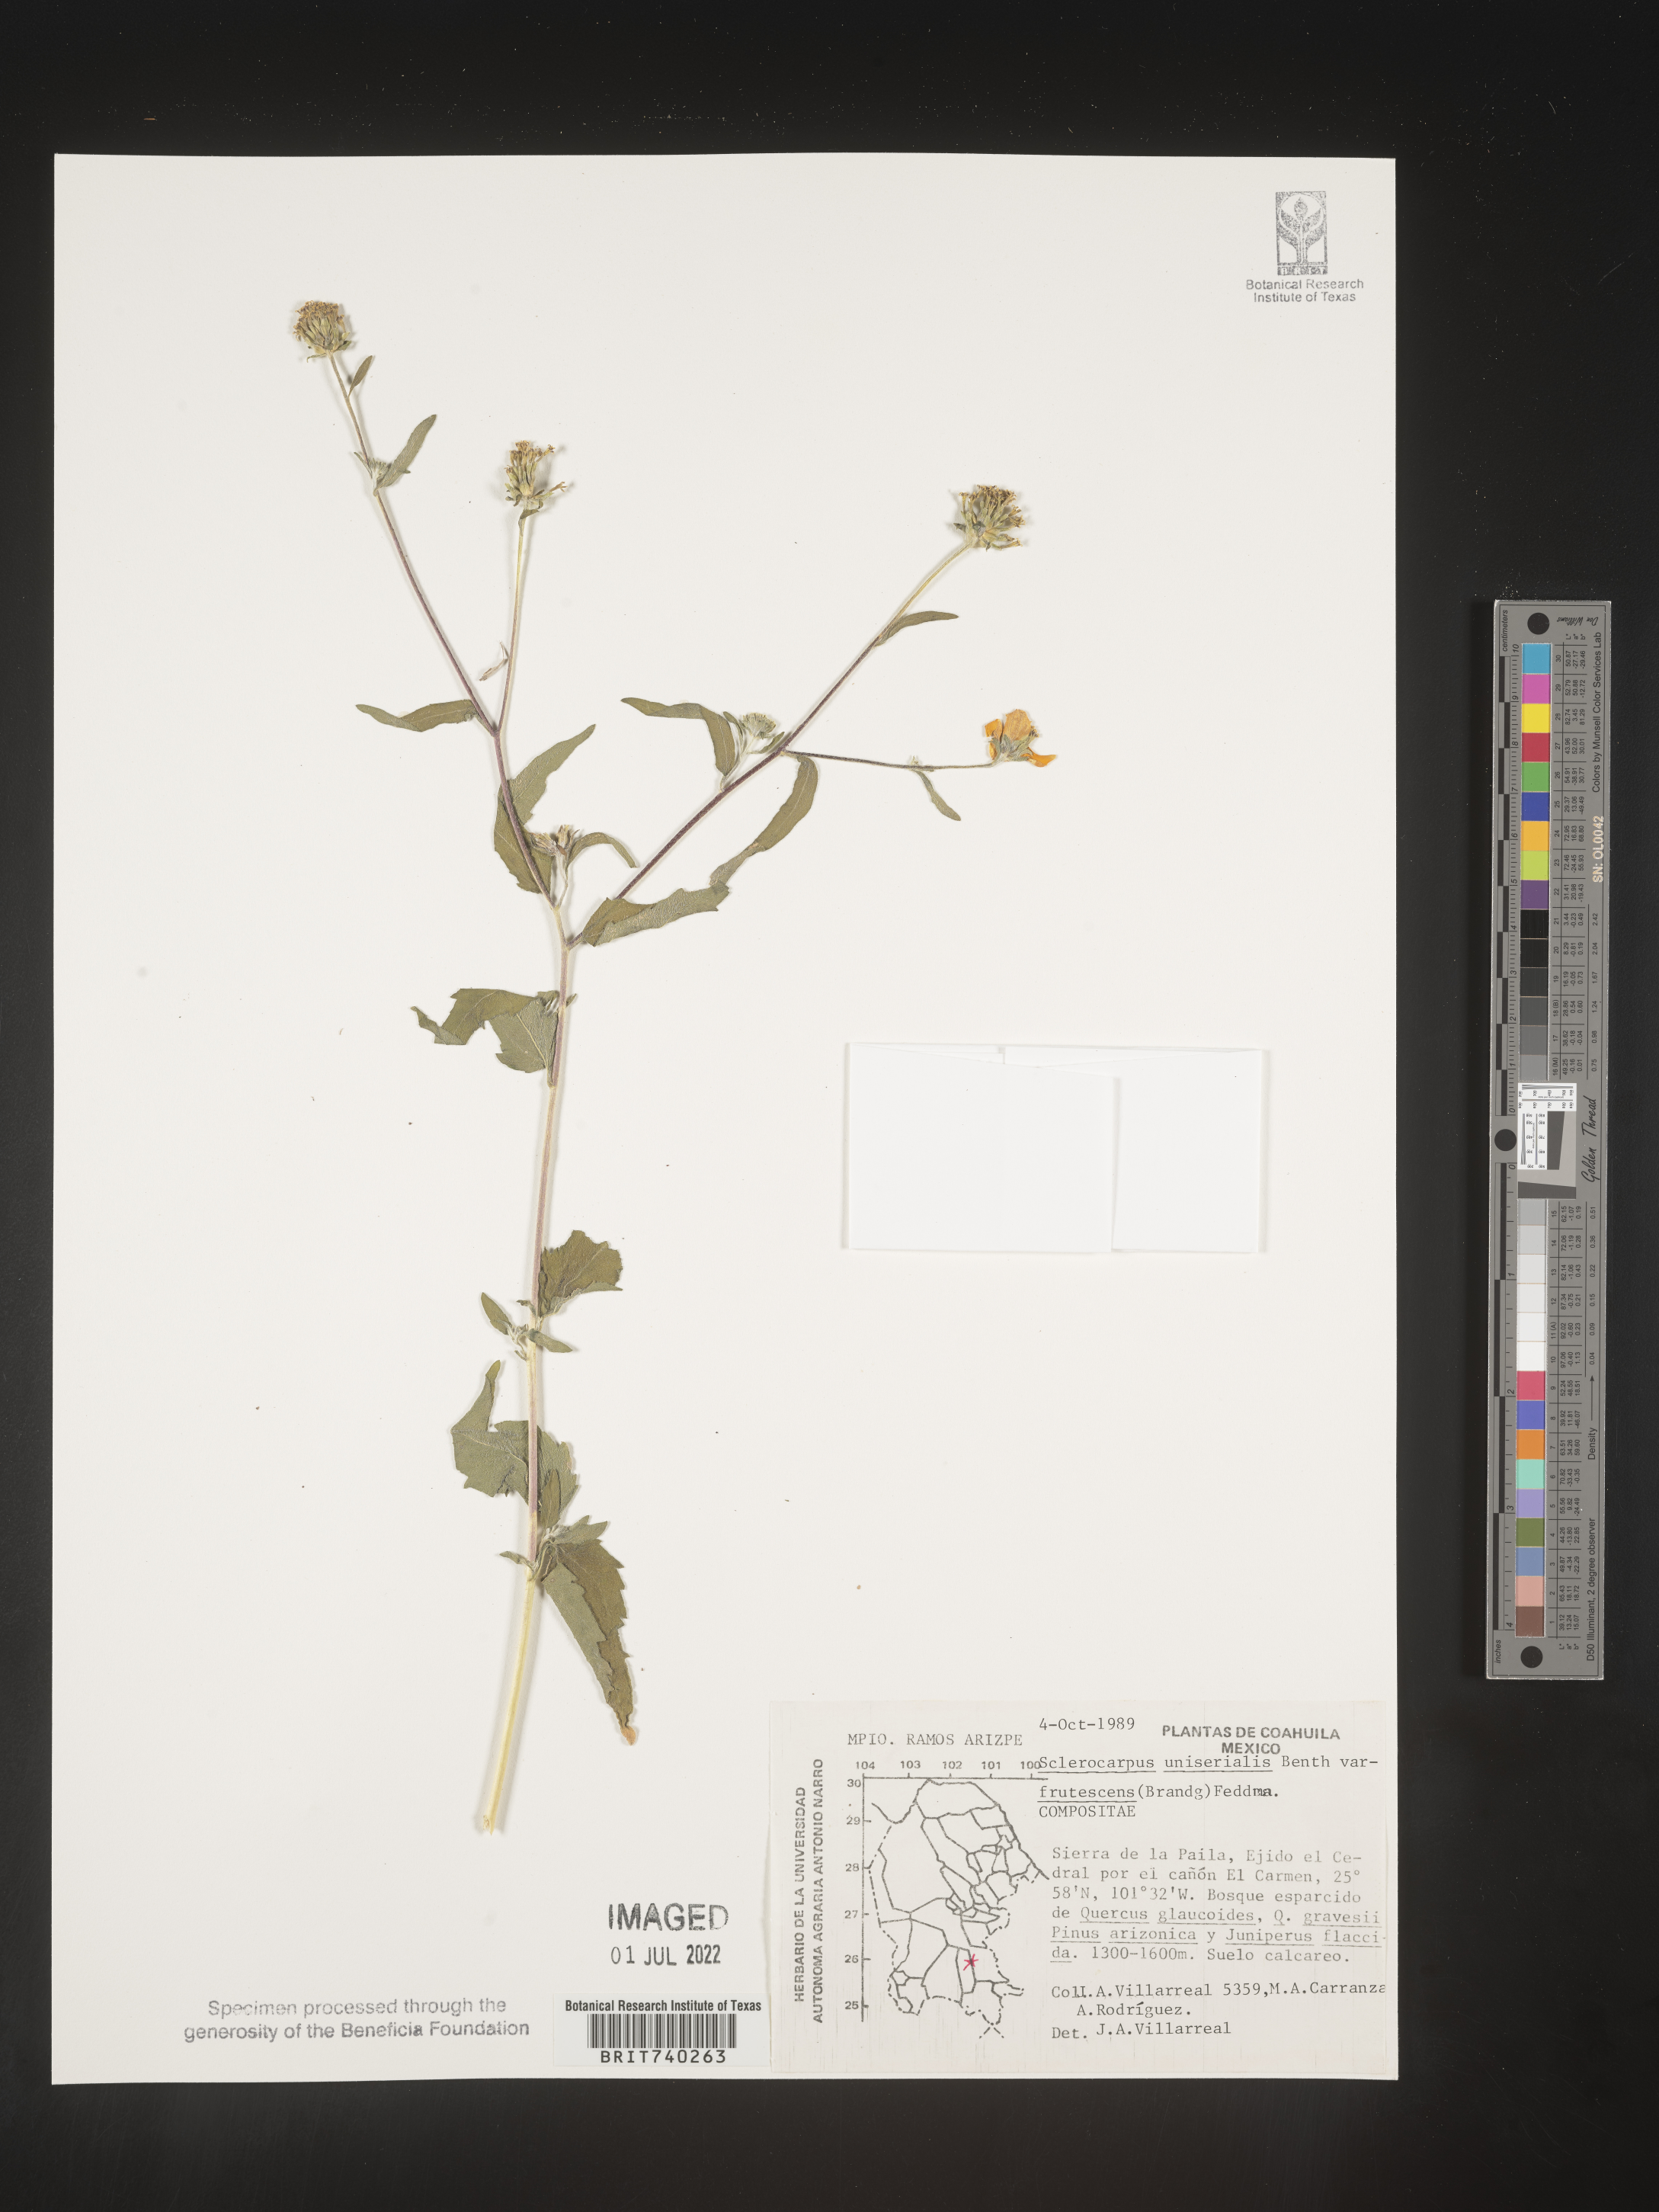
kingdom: Plantae
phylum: Tracheophyta
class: Magnoliopsida
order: Asterales
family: Asteraceae
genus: Sclerocarpus
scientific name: Sclerocarpus
